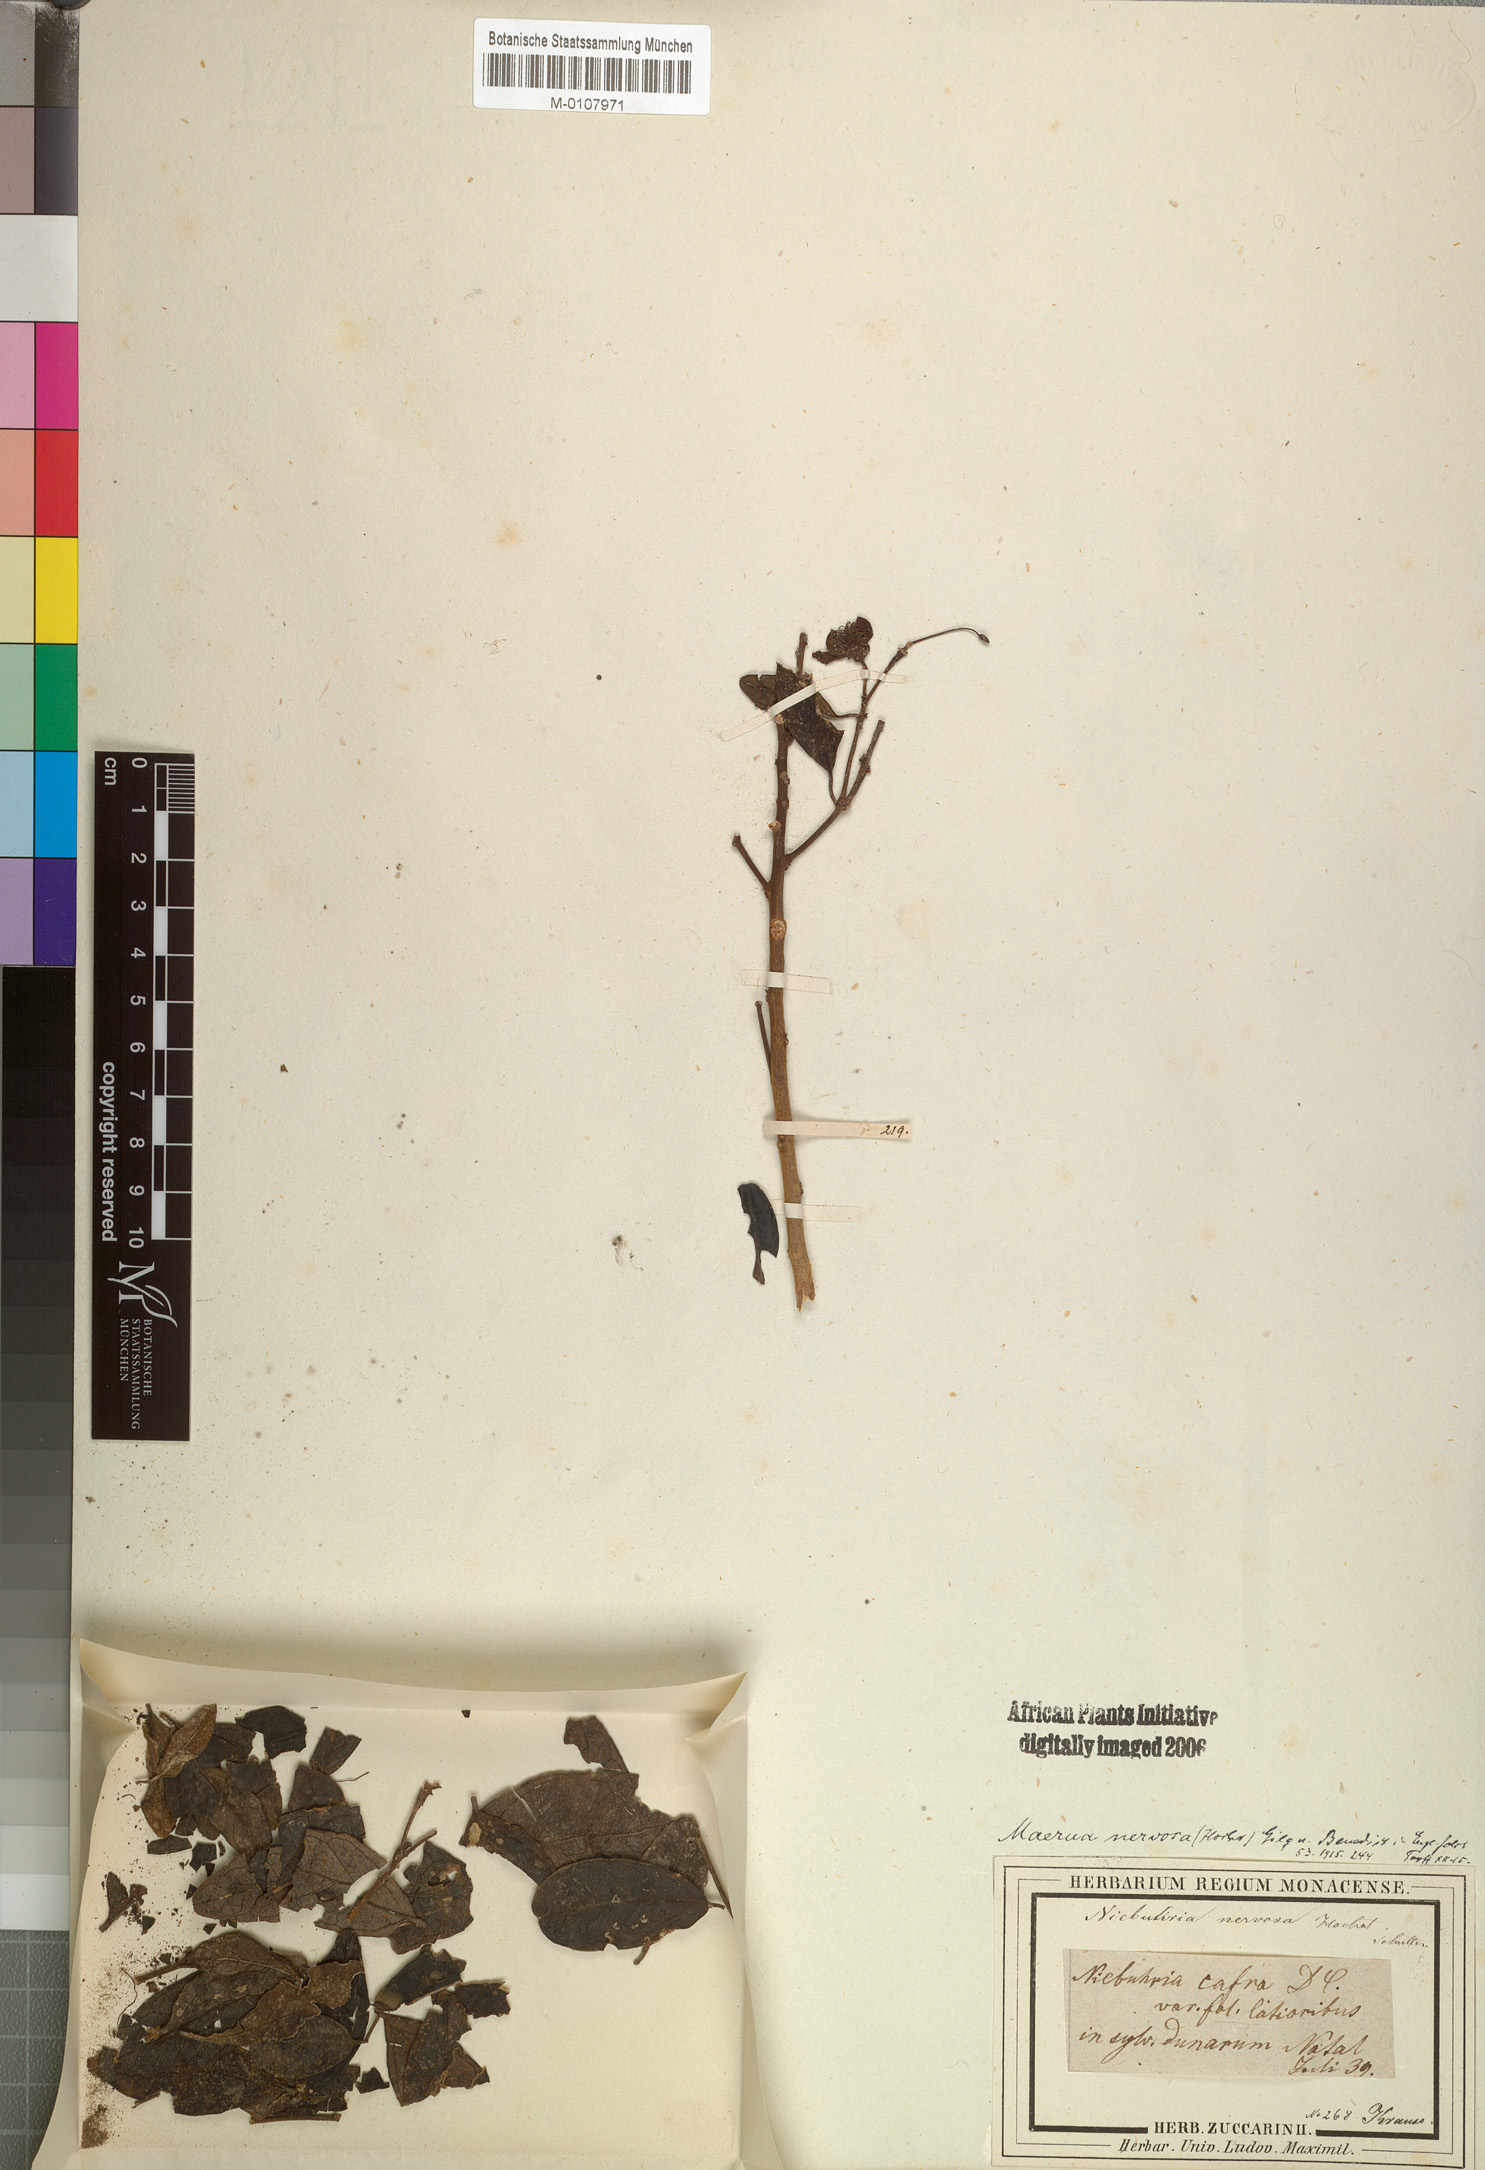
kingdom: Plantae
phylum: Tracheophyta
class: Magnoliopsida
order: Brassicales
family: Capparaceae
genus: Maerua
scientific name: Maerua nervosa
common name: Natal bush-cherry
